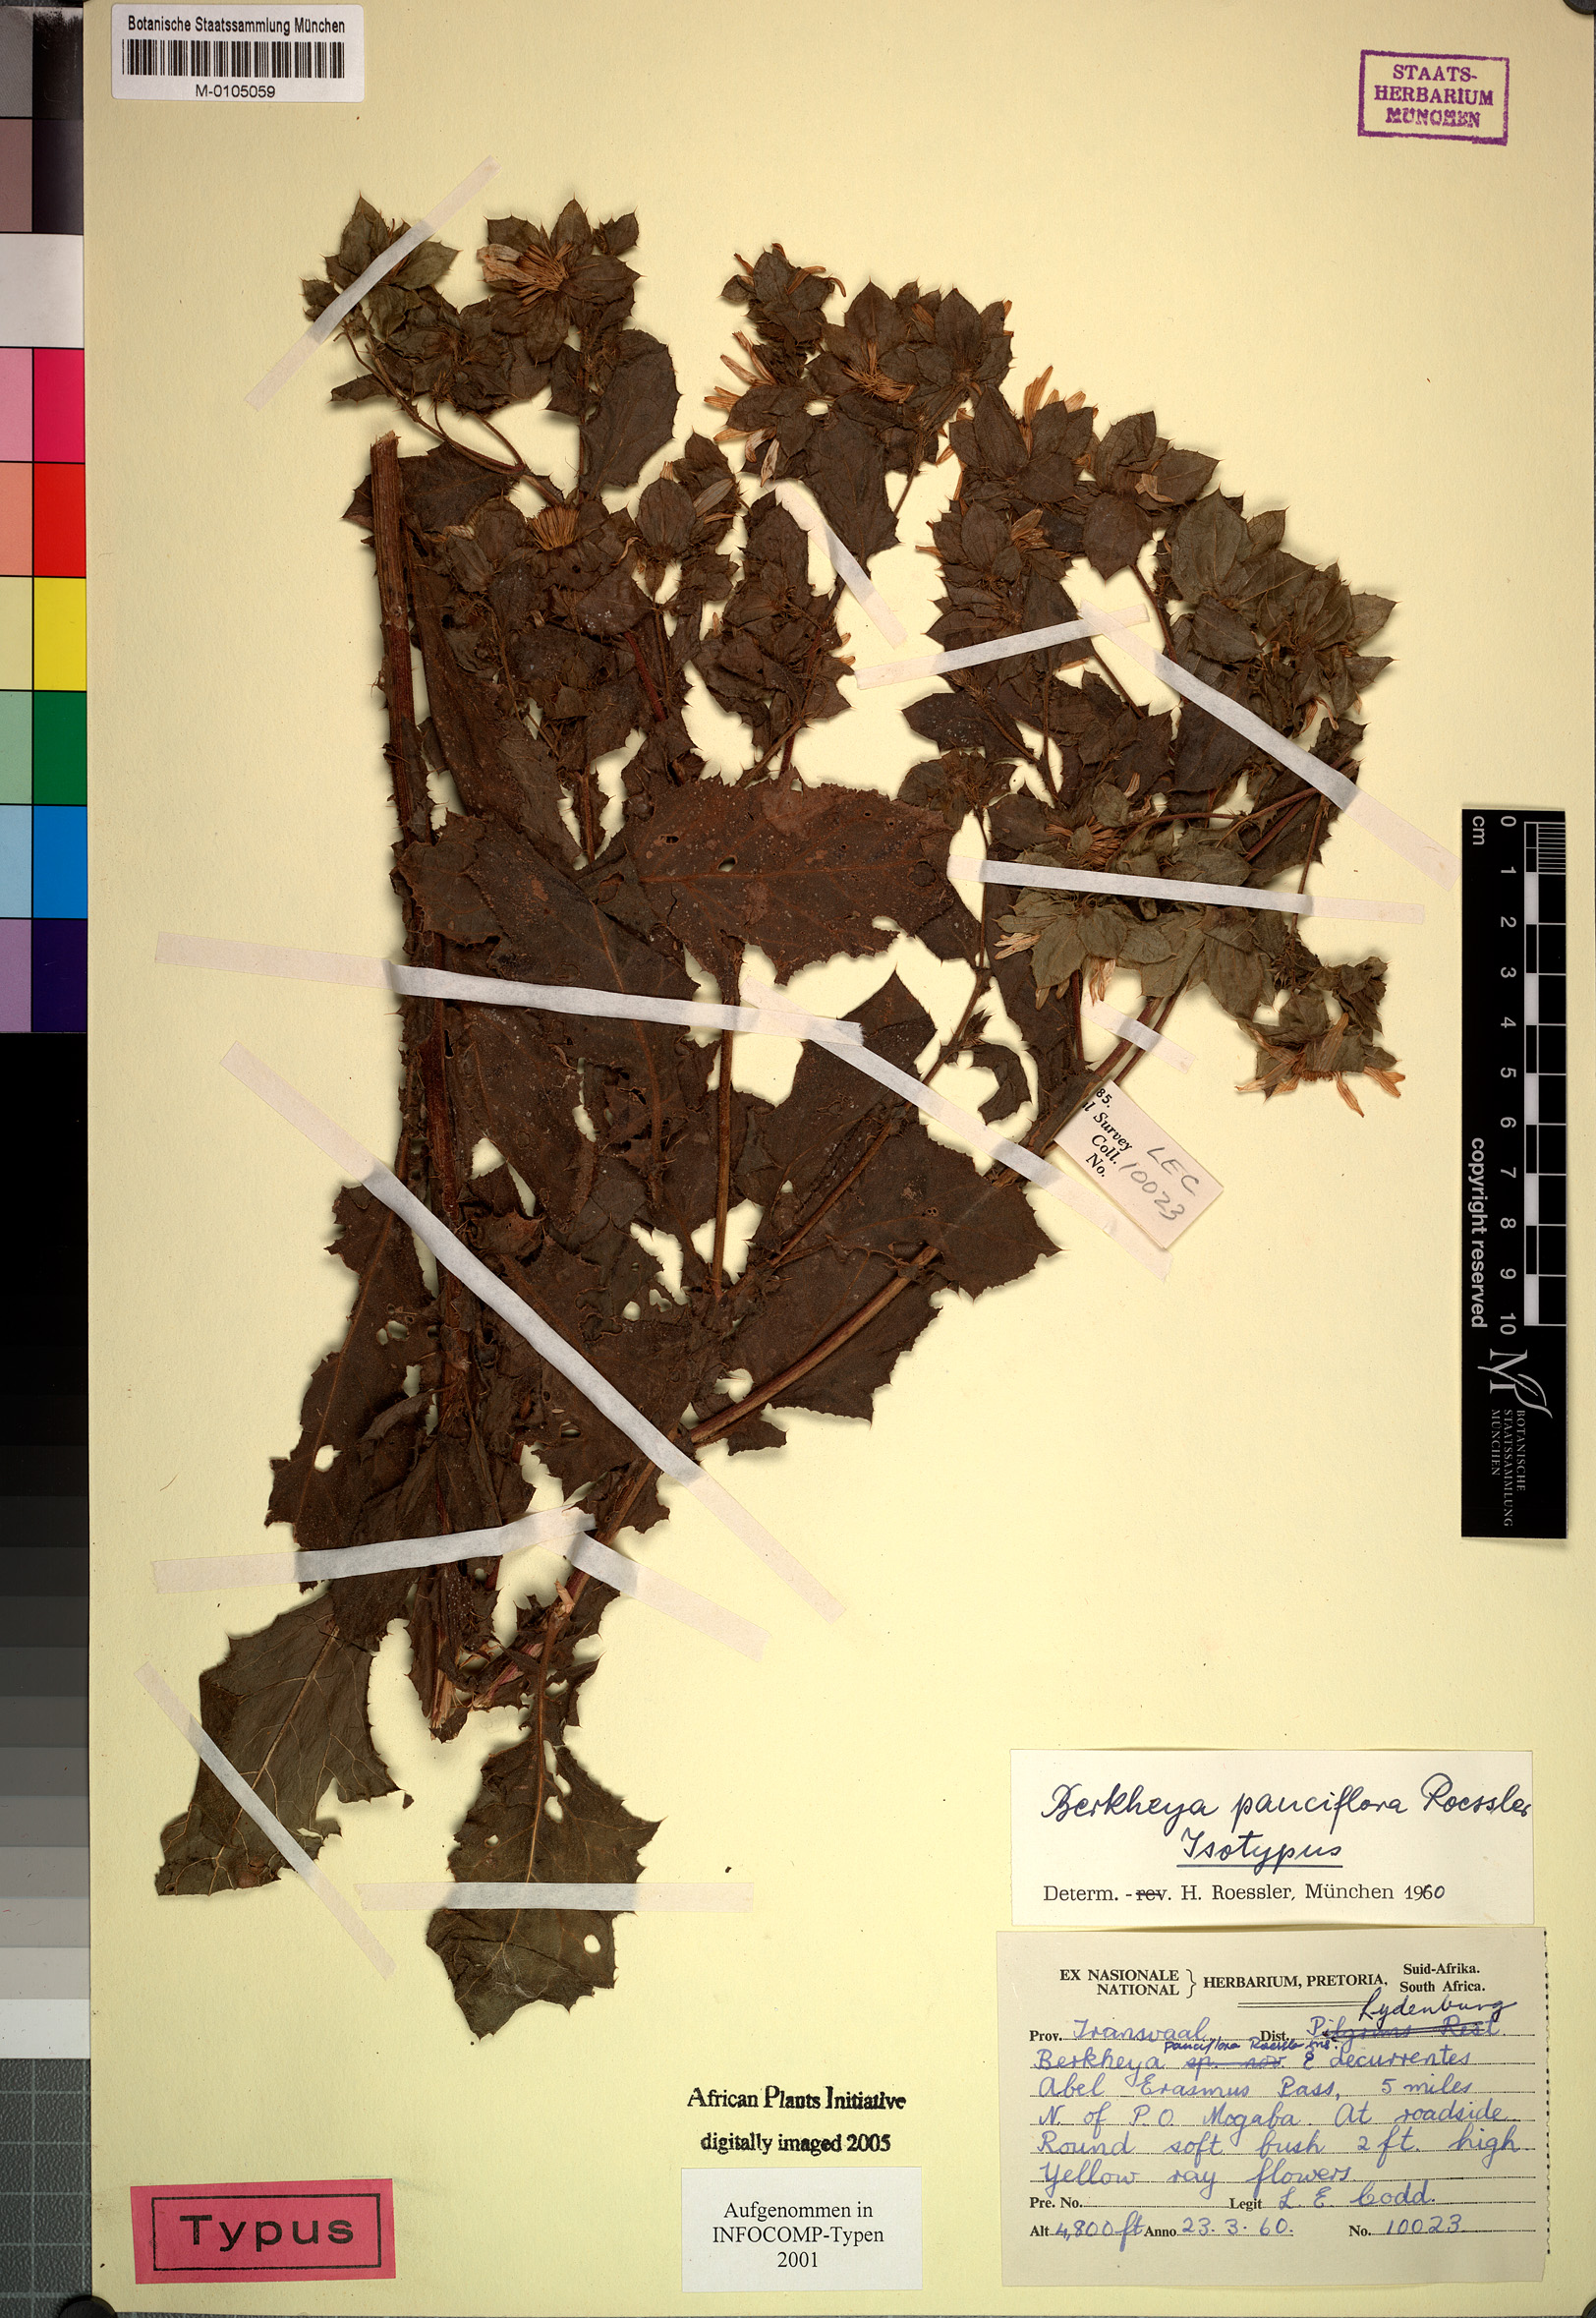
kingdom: Plantae
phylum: Tracheophyta
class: Magnoliopsida
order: Asterales
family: Asteraceae
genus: Berkheya
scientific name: Berkheya pauciflora
